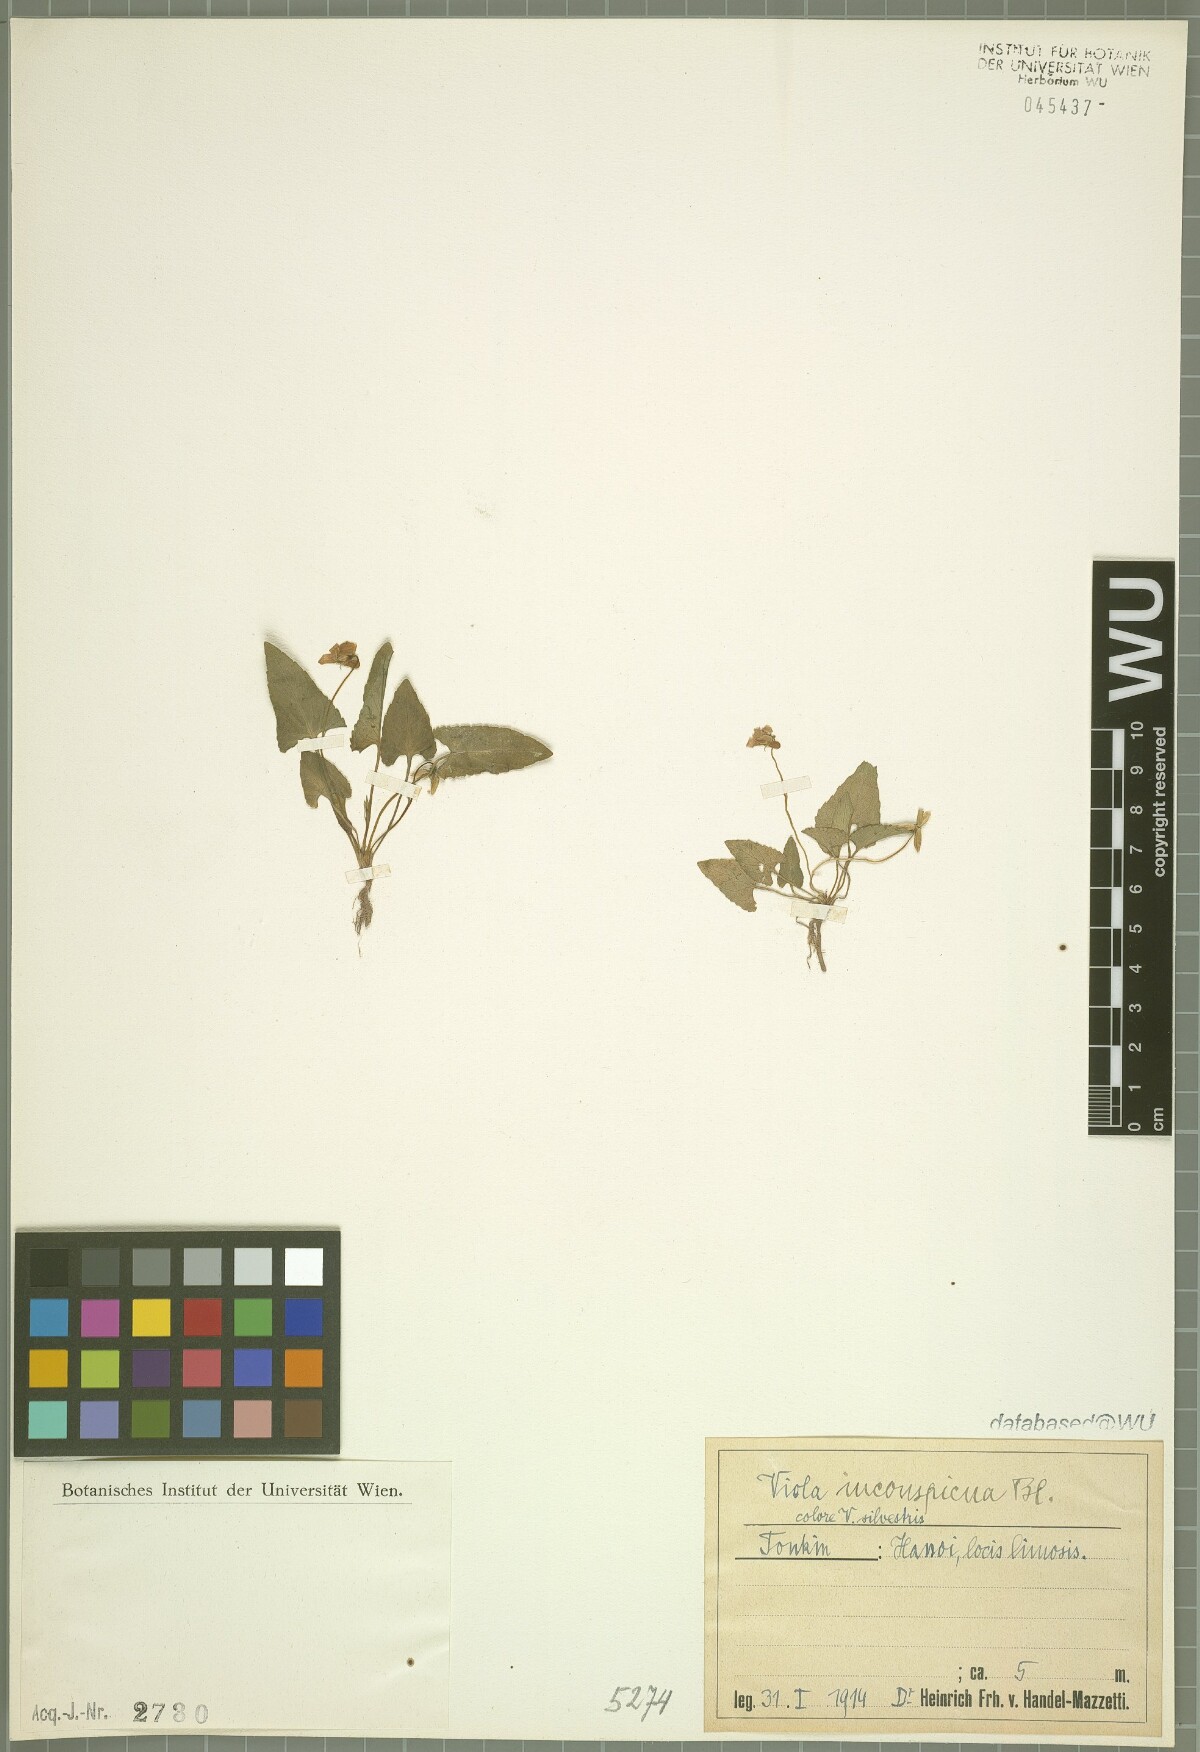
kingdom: Plantae
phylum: Tracheophyta
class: Magnoliopsida
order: Malpighiales
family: Violaceae
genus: Viola
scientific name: Viola inconspicua
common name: Long sepal violet
